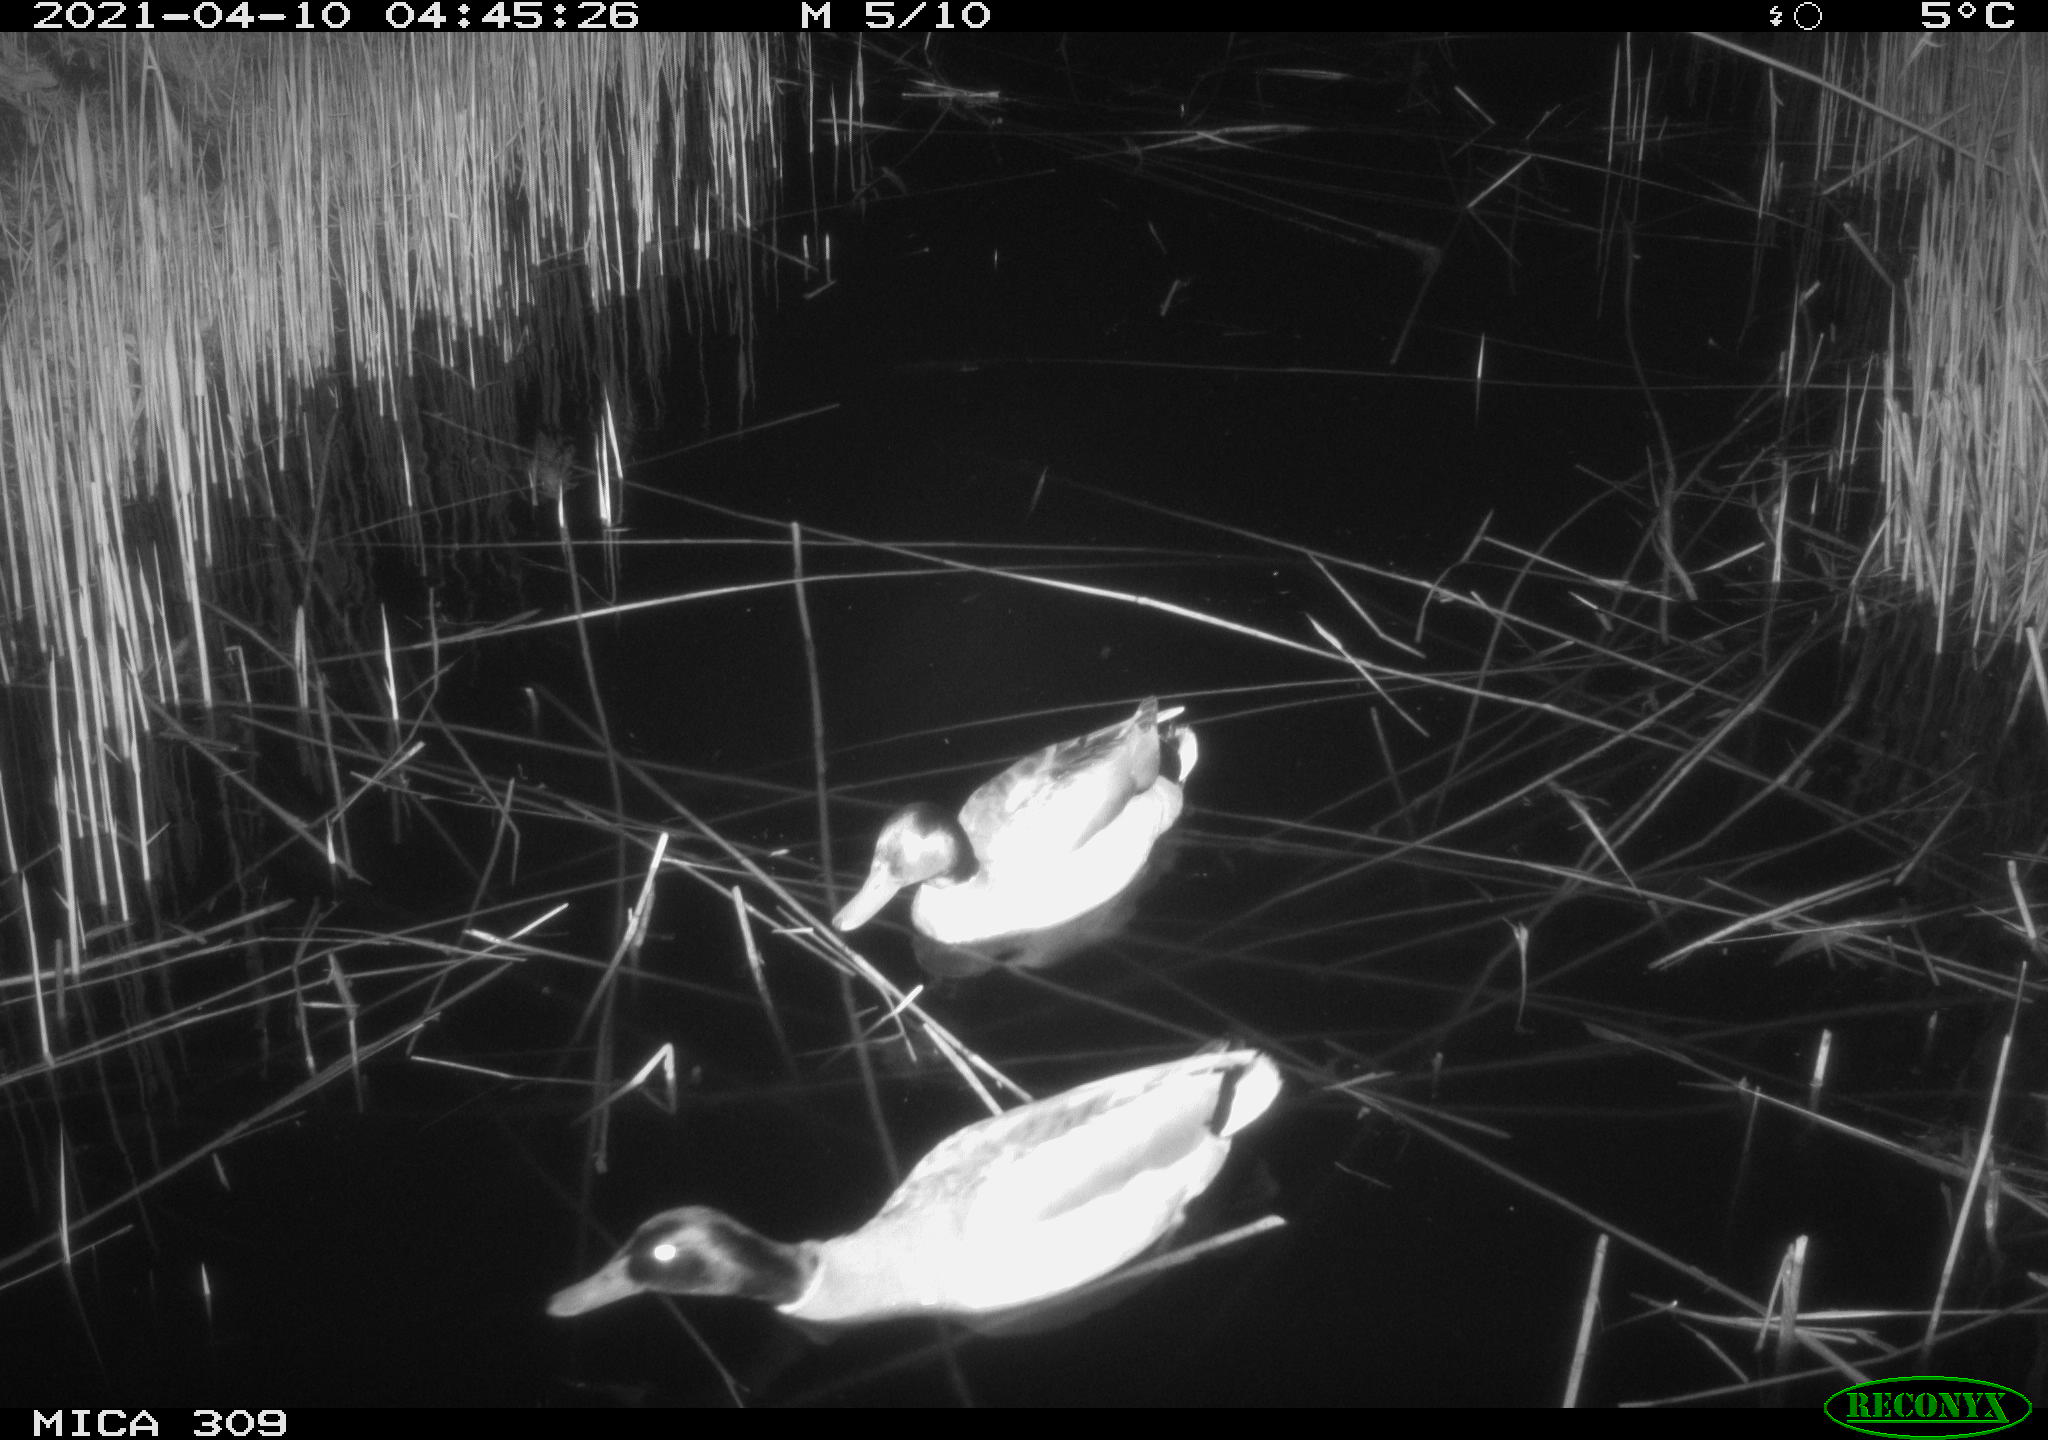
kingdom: Animalia
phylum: Chordata
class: Aves
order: Anseriformes
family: Anatidae
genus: Anas
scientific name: Anas platyrhynchos
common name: Mallard
